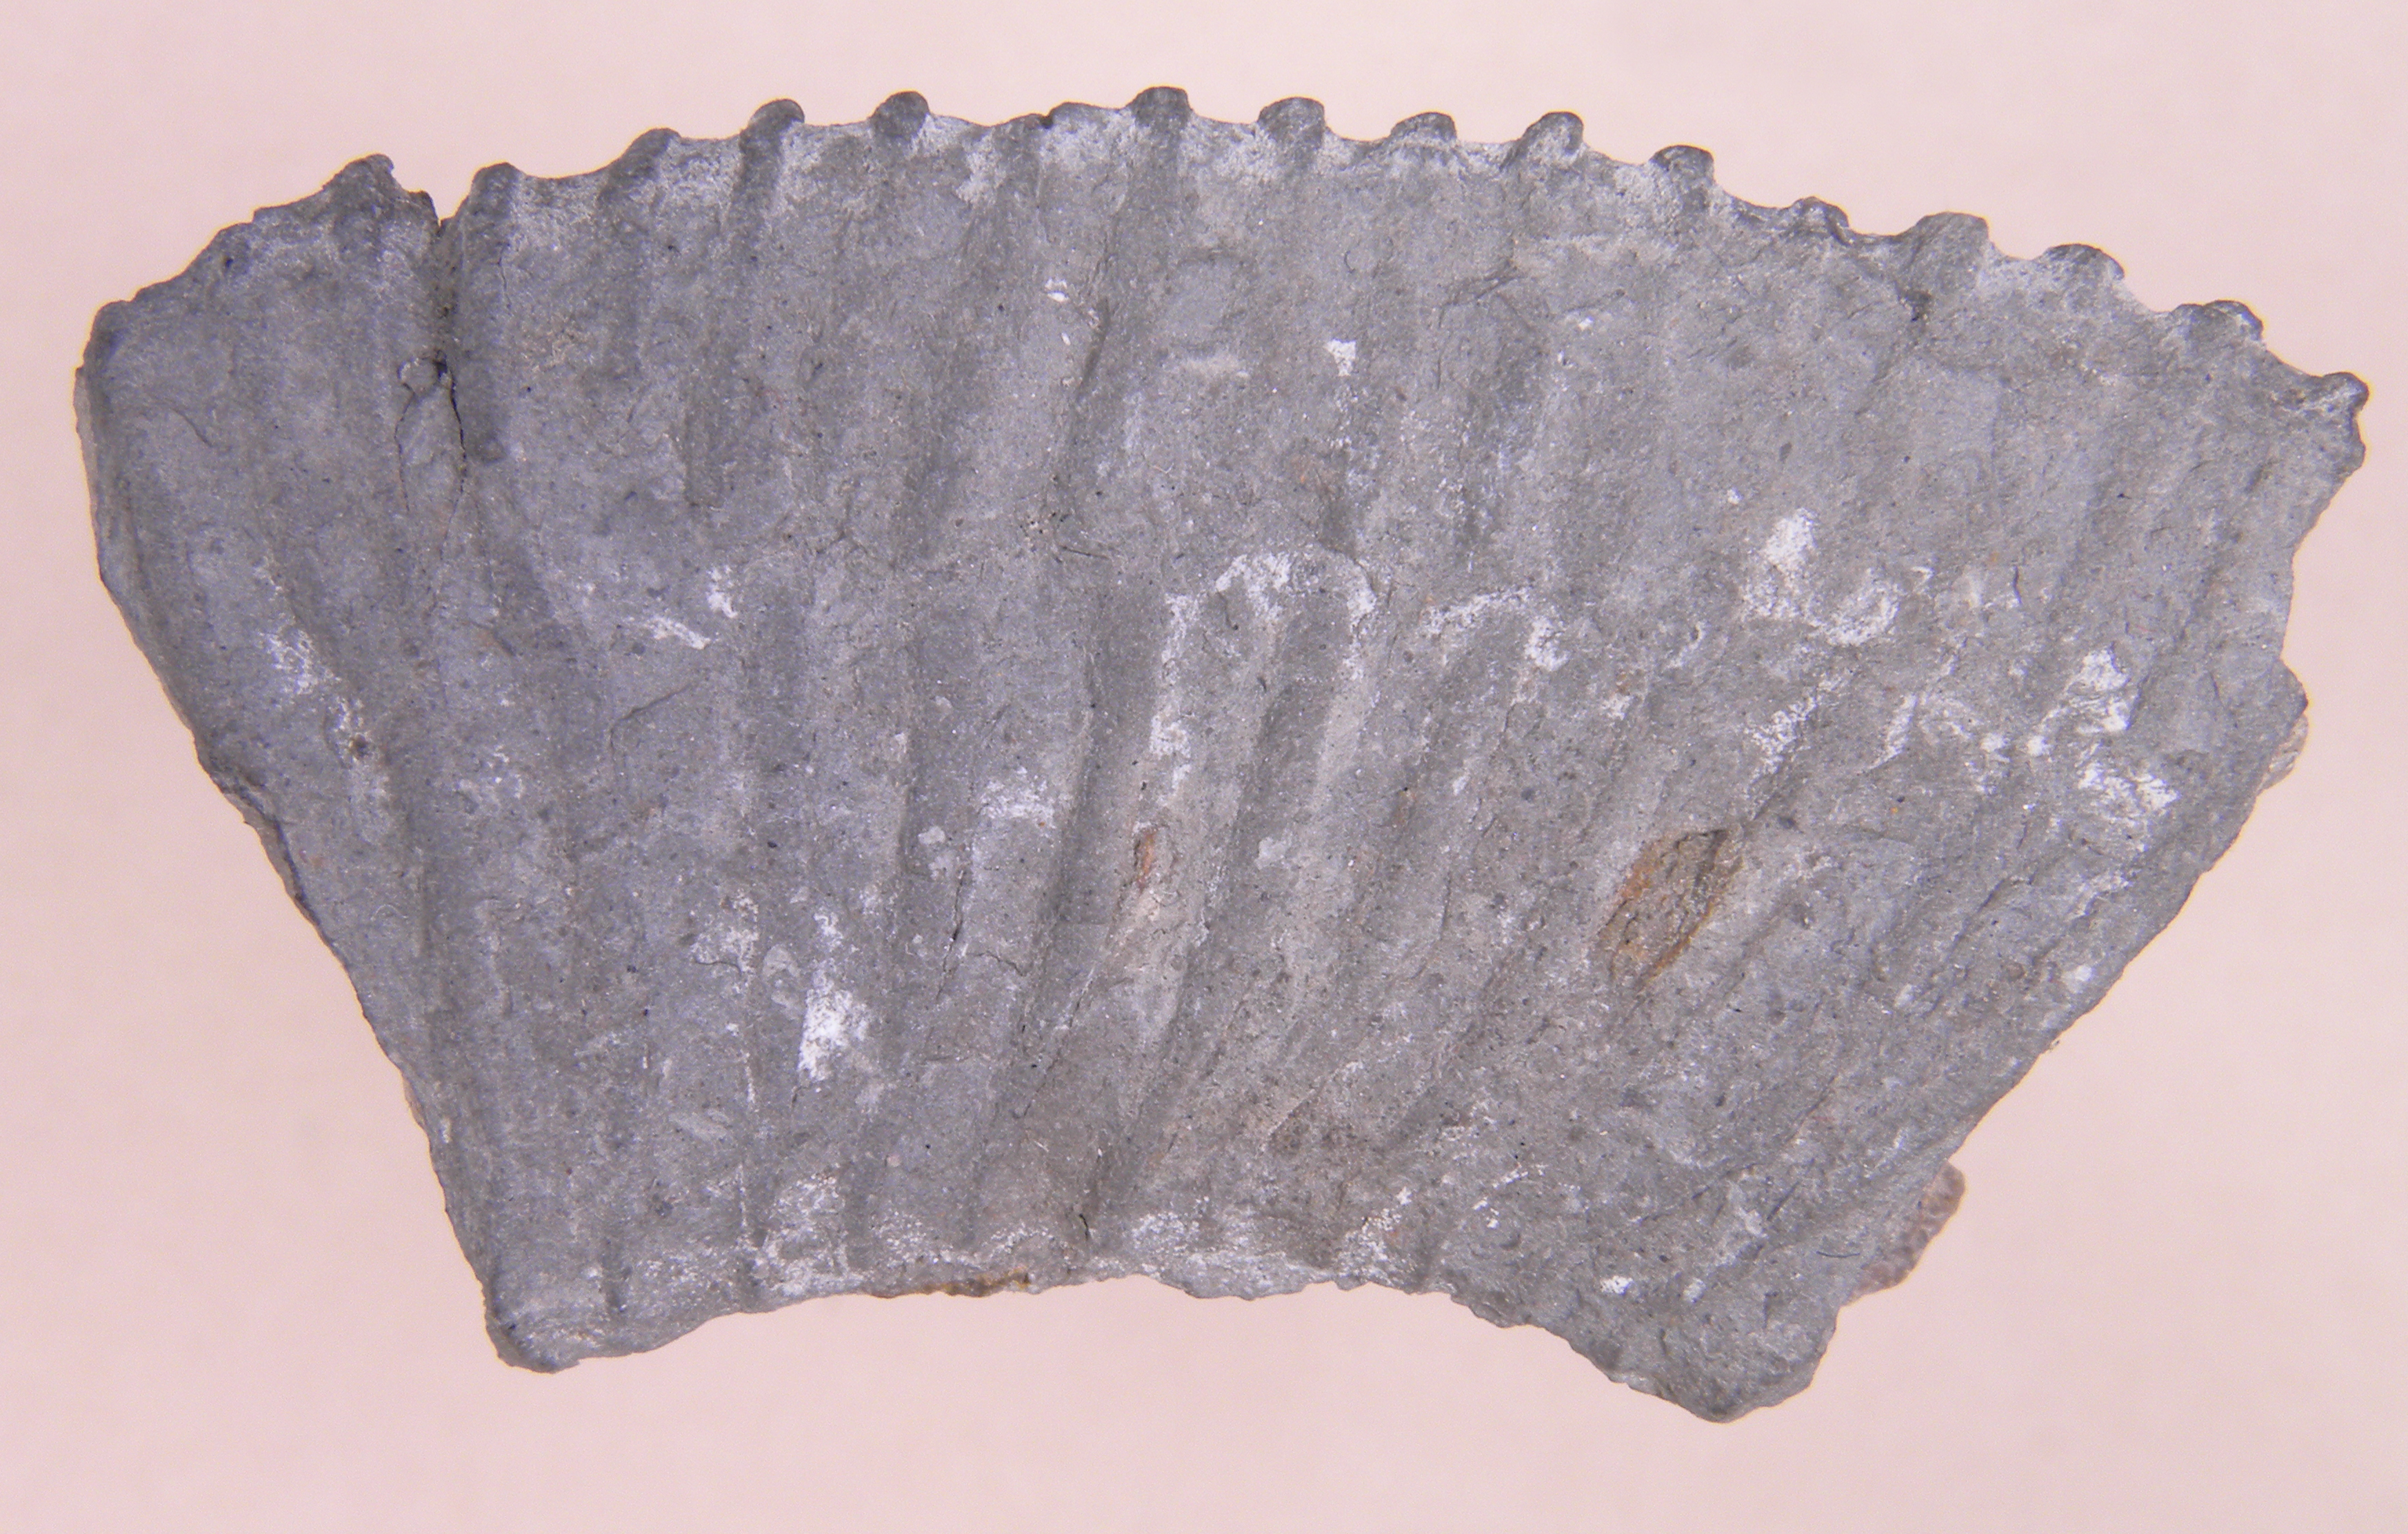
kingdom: Animalia
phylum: Mollusca
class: Cephalopoda
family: Dactylioceratidae
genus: Dactylioceras
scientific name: Dactylioceras
